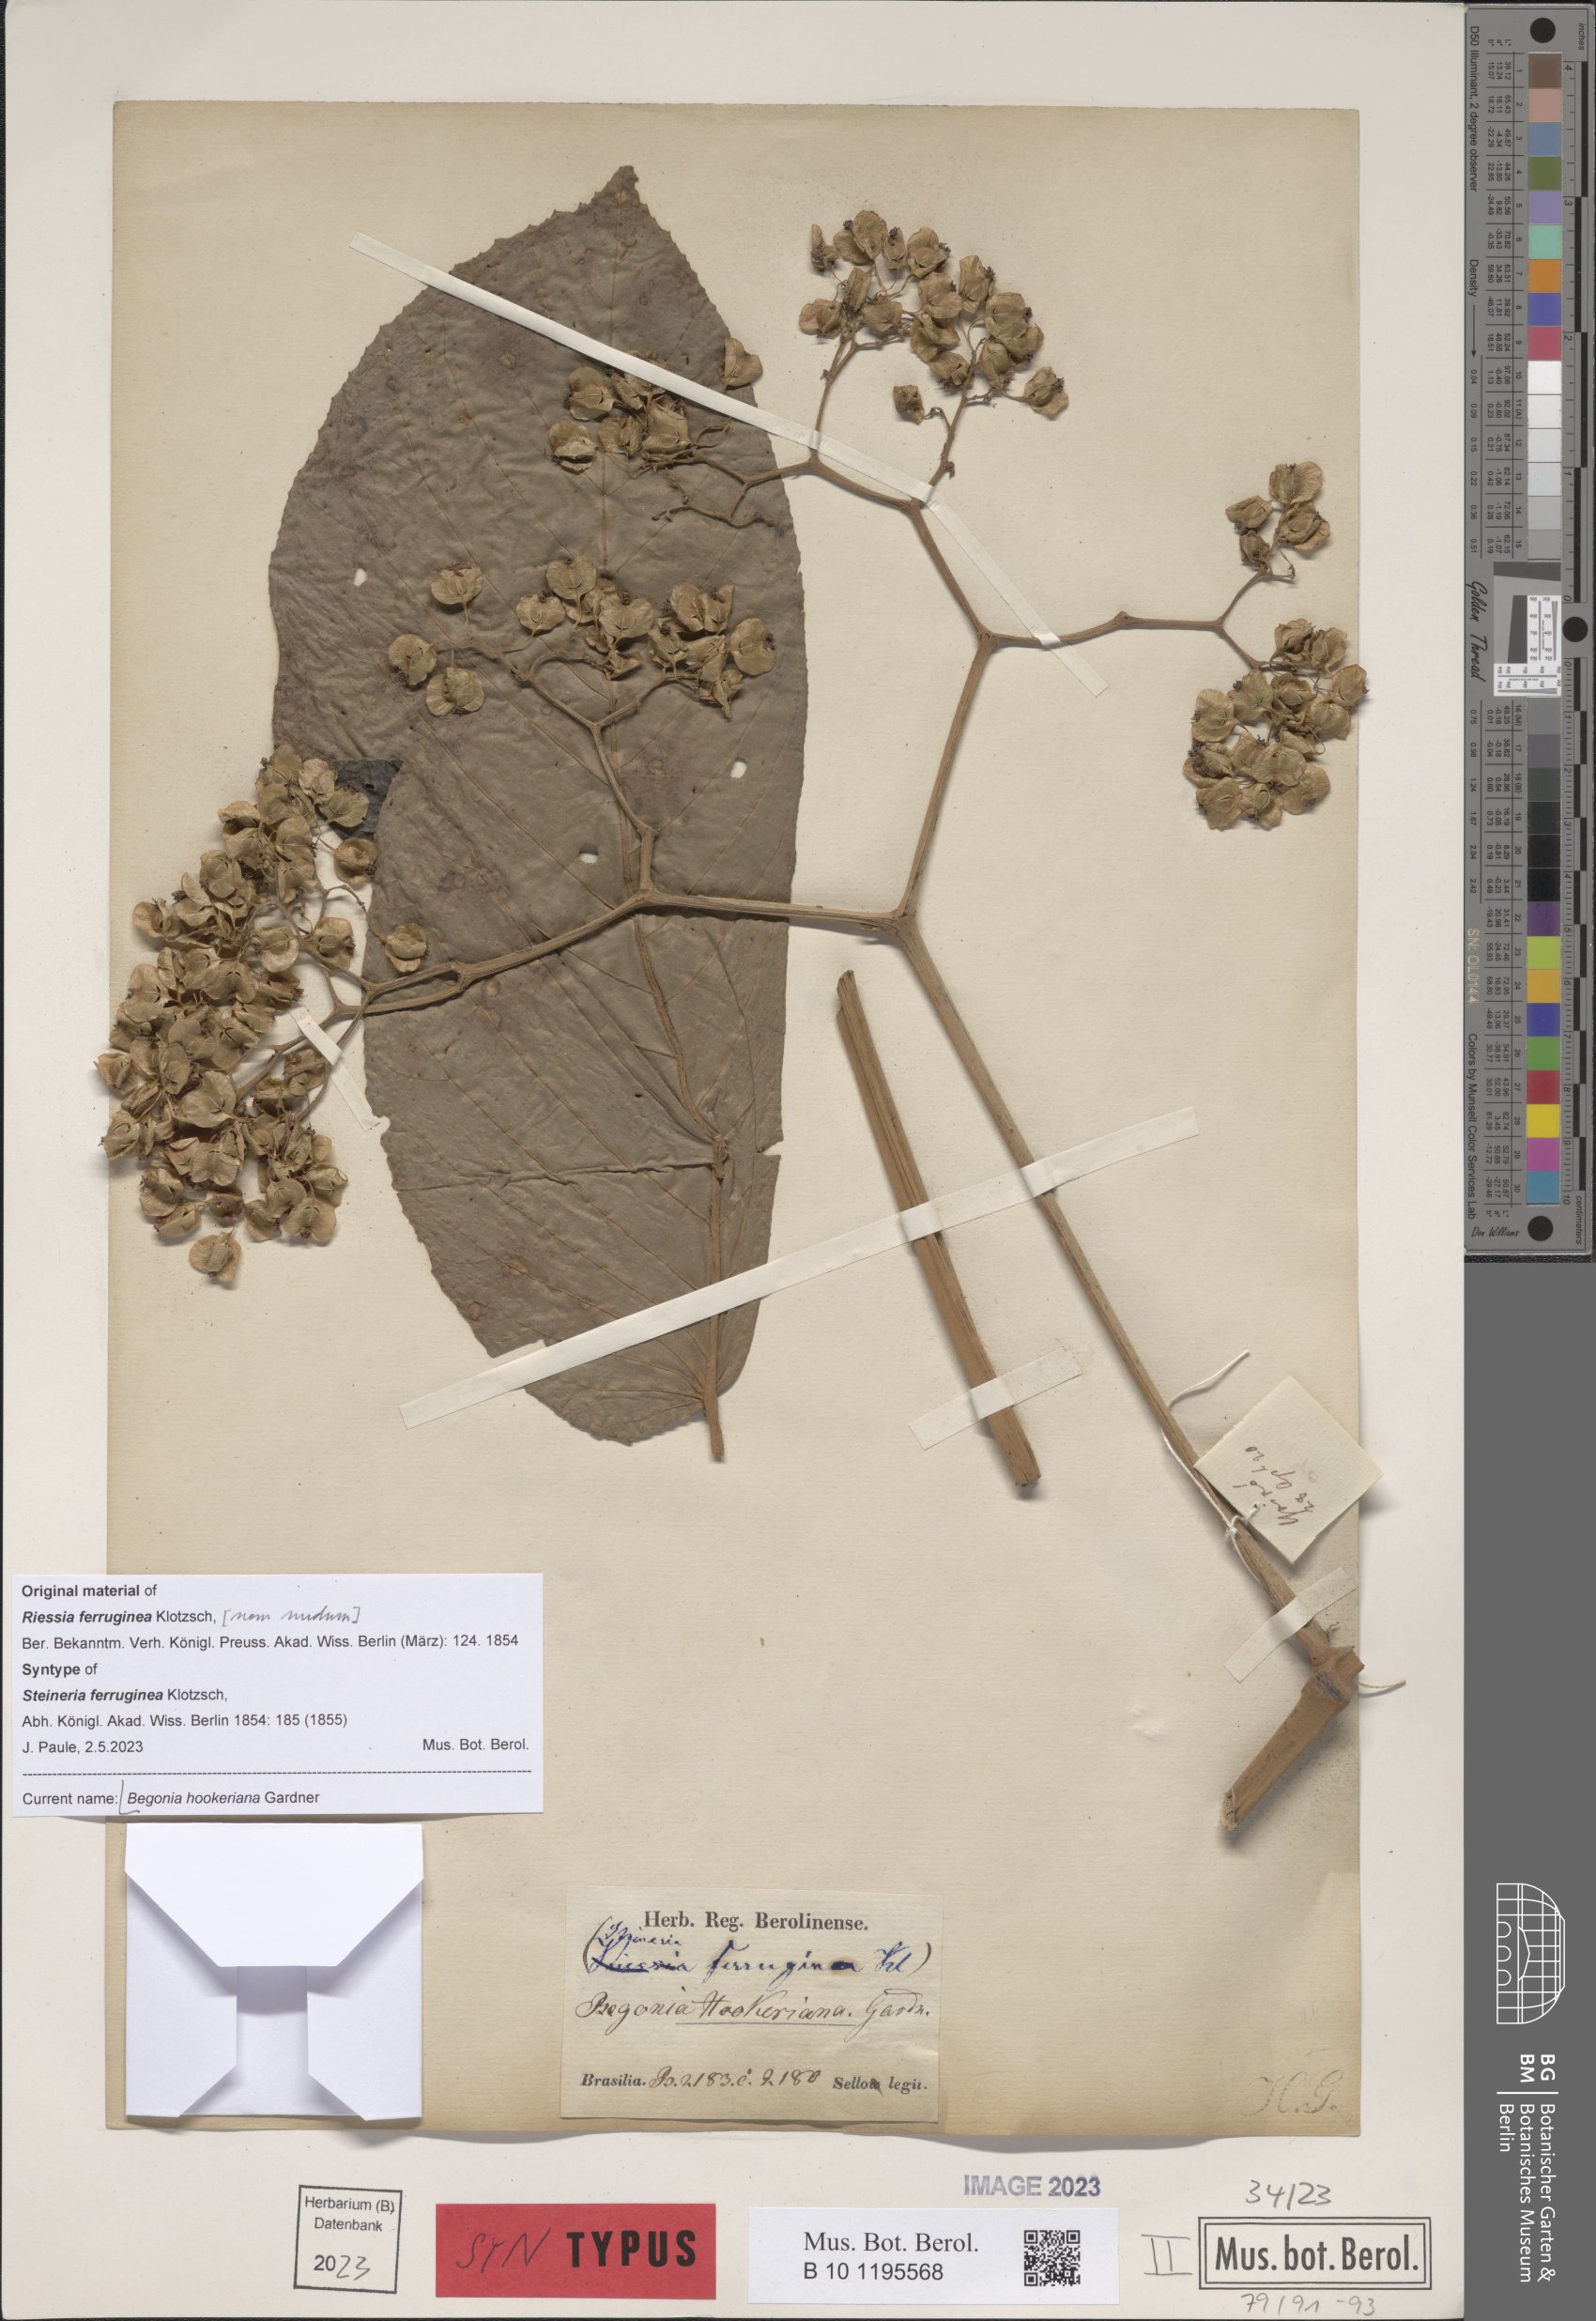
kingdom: Plantae
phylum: Tracheophyta
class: Magnoliopsida
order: Cucurbitales
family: Begoniaceae
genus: Begonia
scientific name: Begonia hookeriana
